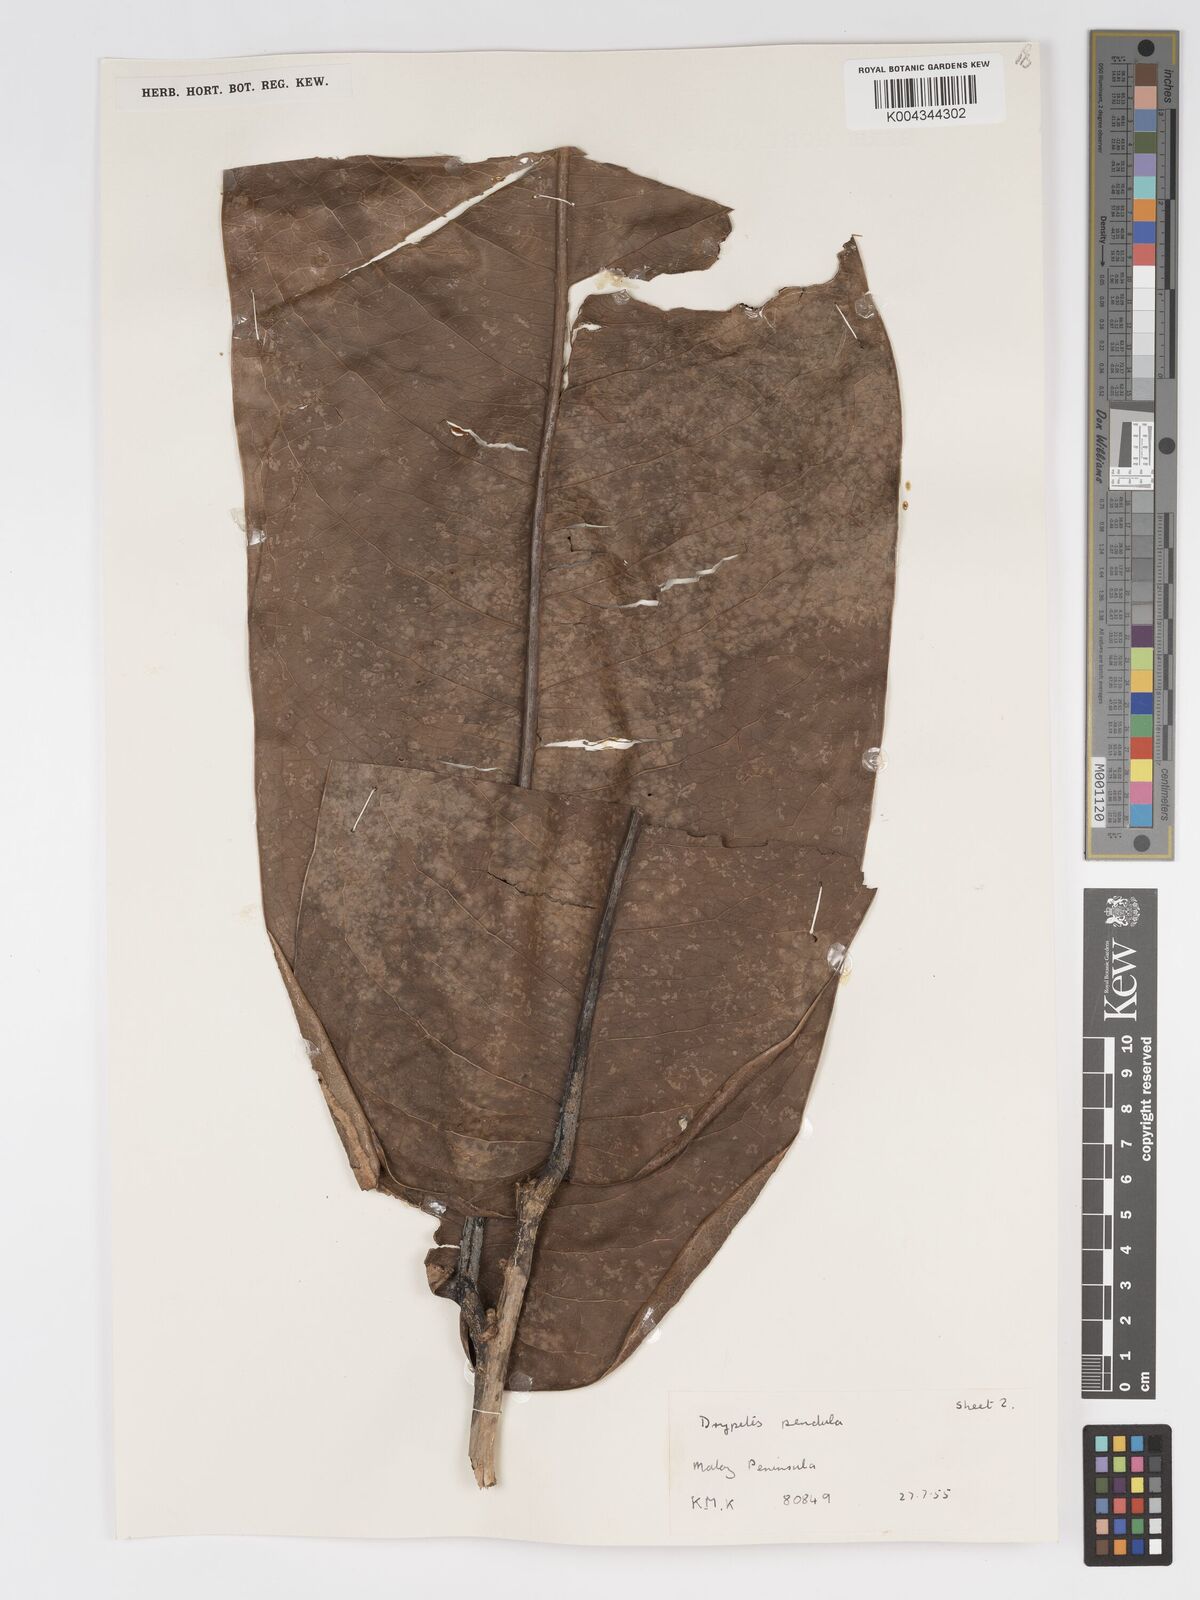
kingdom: Plantae
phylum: Tracheophyta
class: Magnoliopsida
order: Malpighiales
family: Putranjivaceae
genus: Drypetes
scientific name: Drypetes pendula
